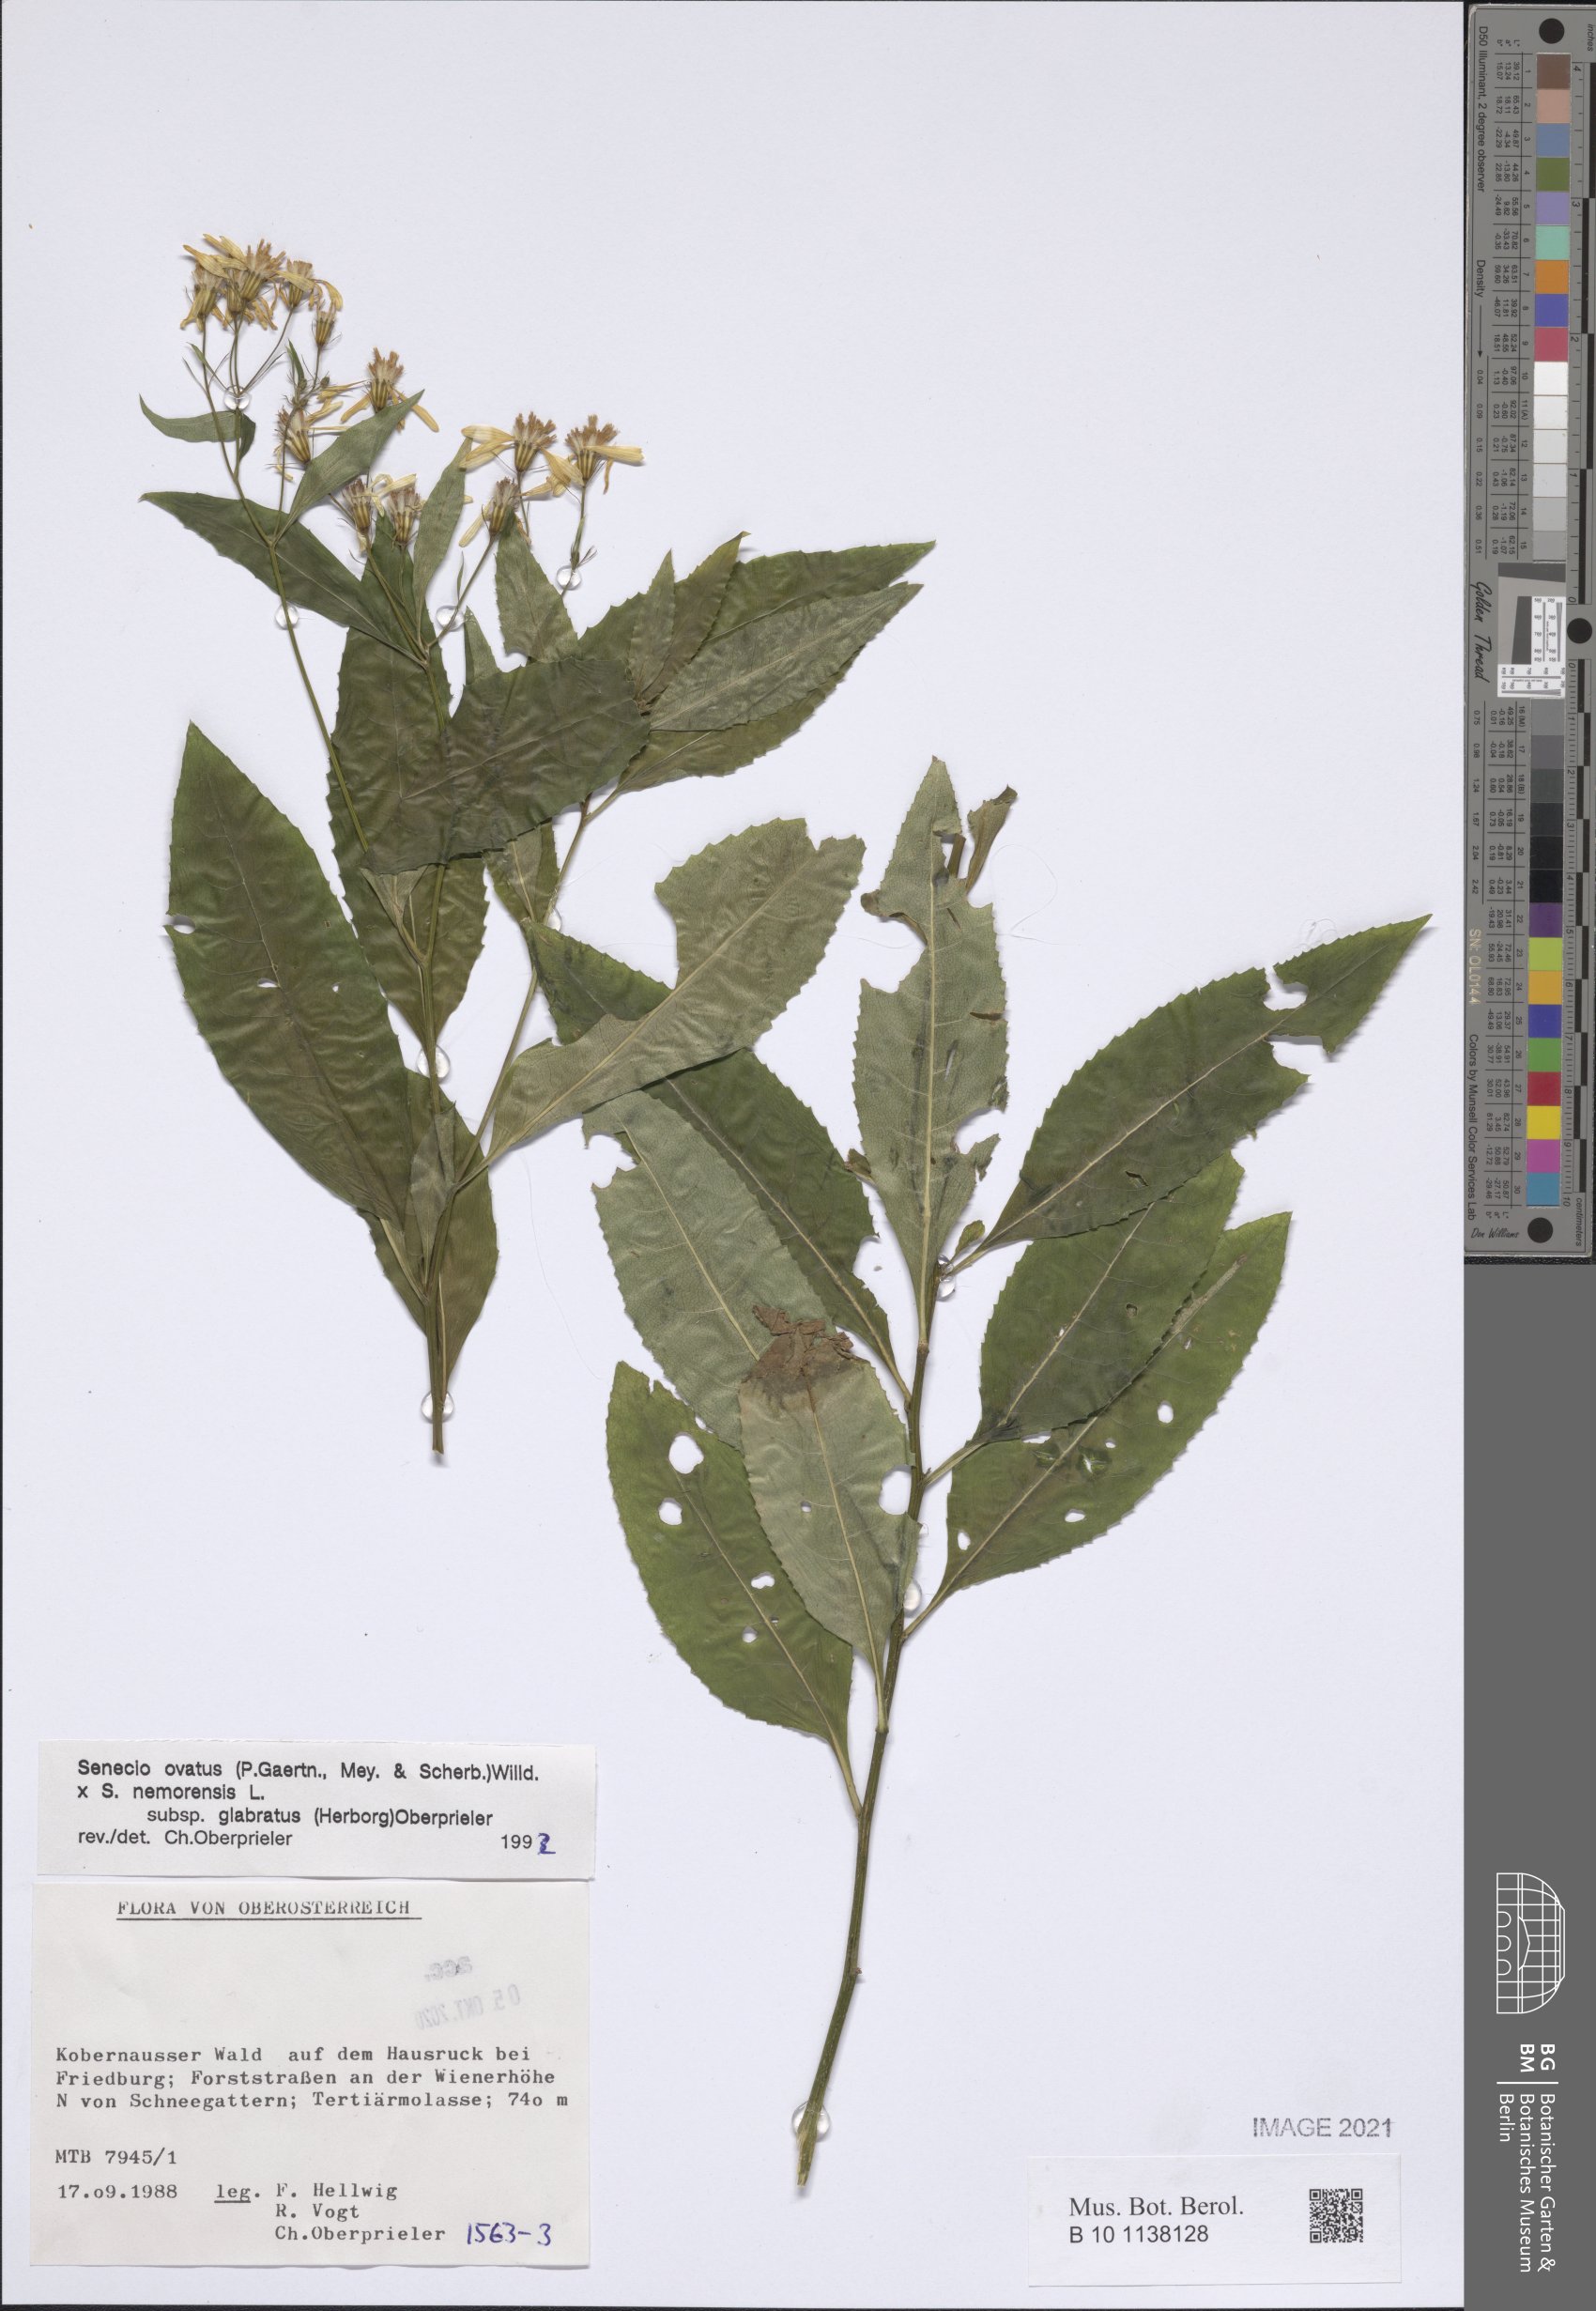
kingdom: Plantae
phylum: Tracheophyta
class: Magnoliopsida
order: Asterales
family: Asteraceae
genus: Senecio
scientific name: Senecio ovatus
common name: Wood ragwort
